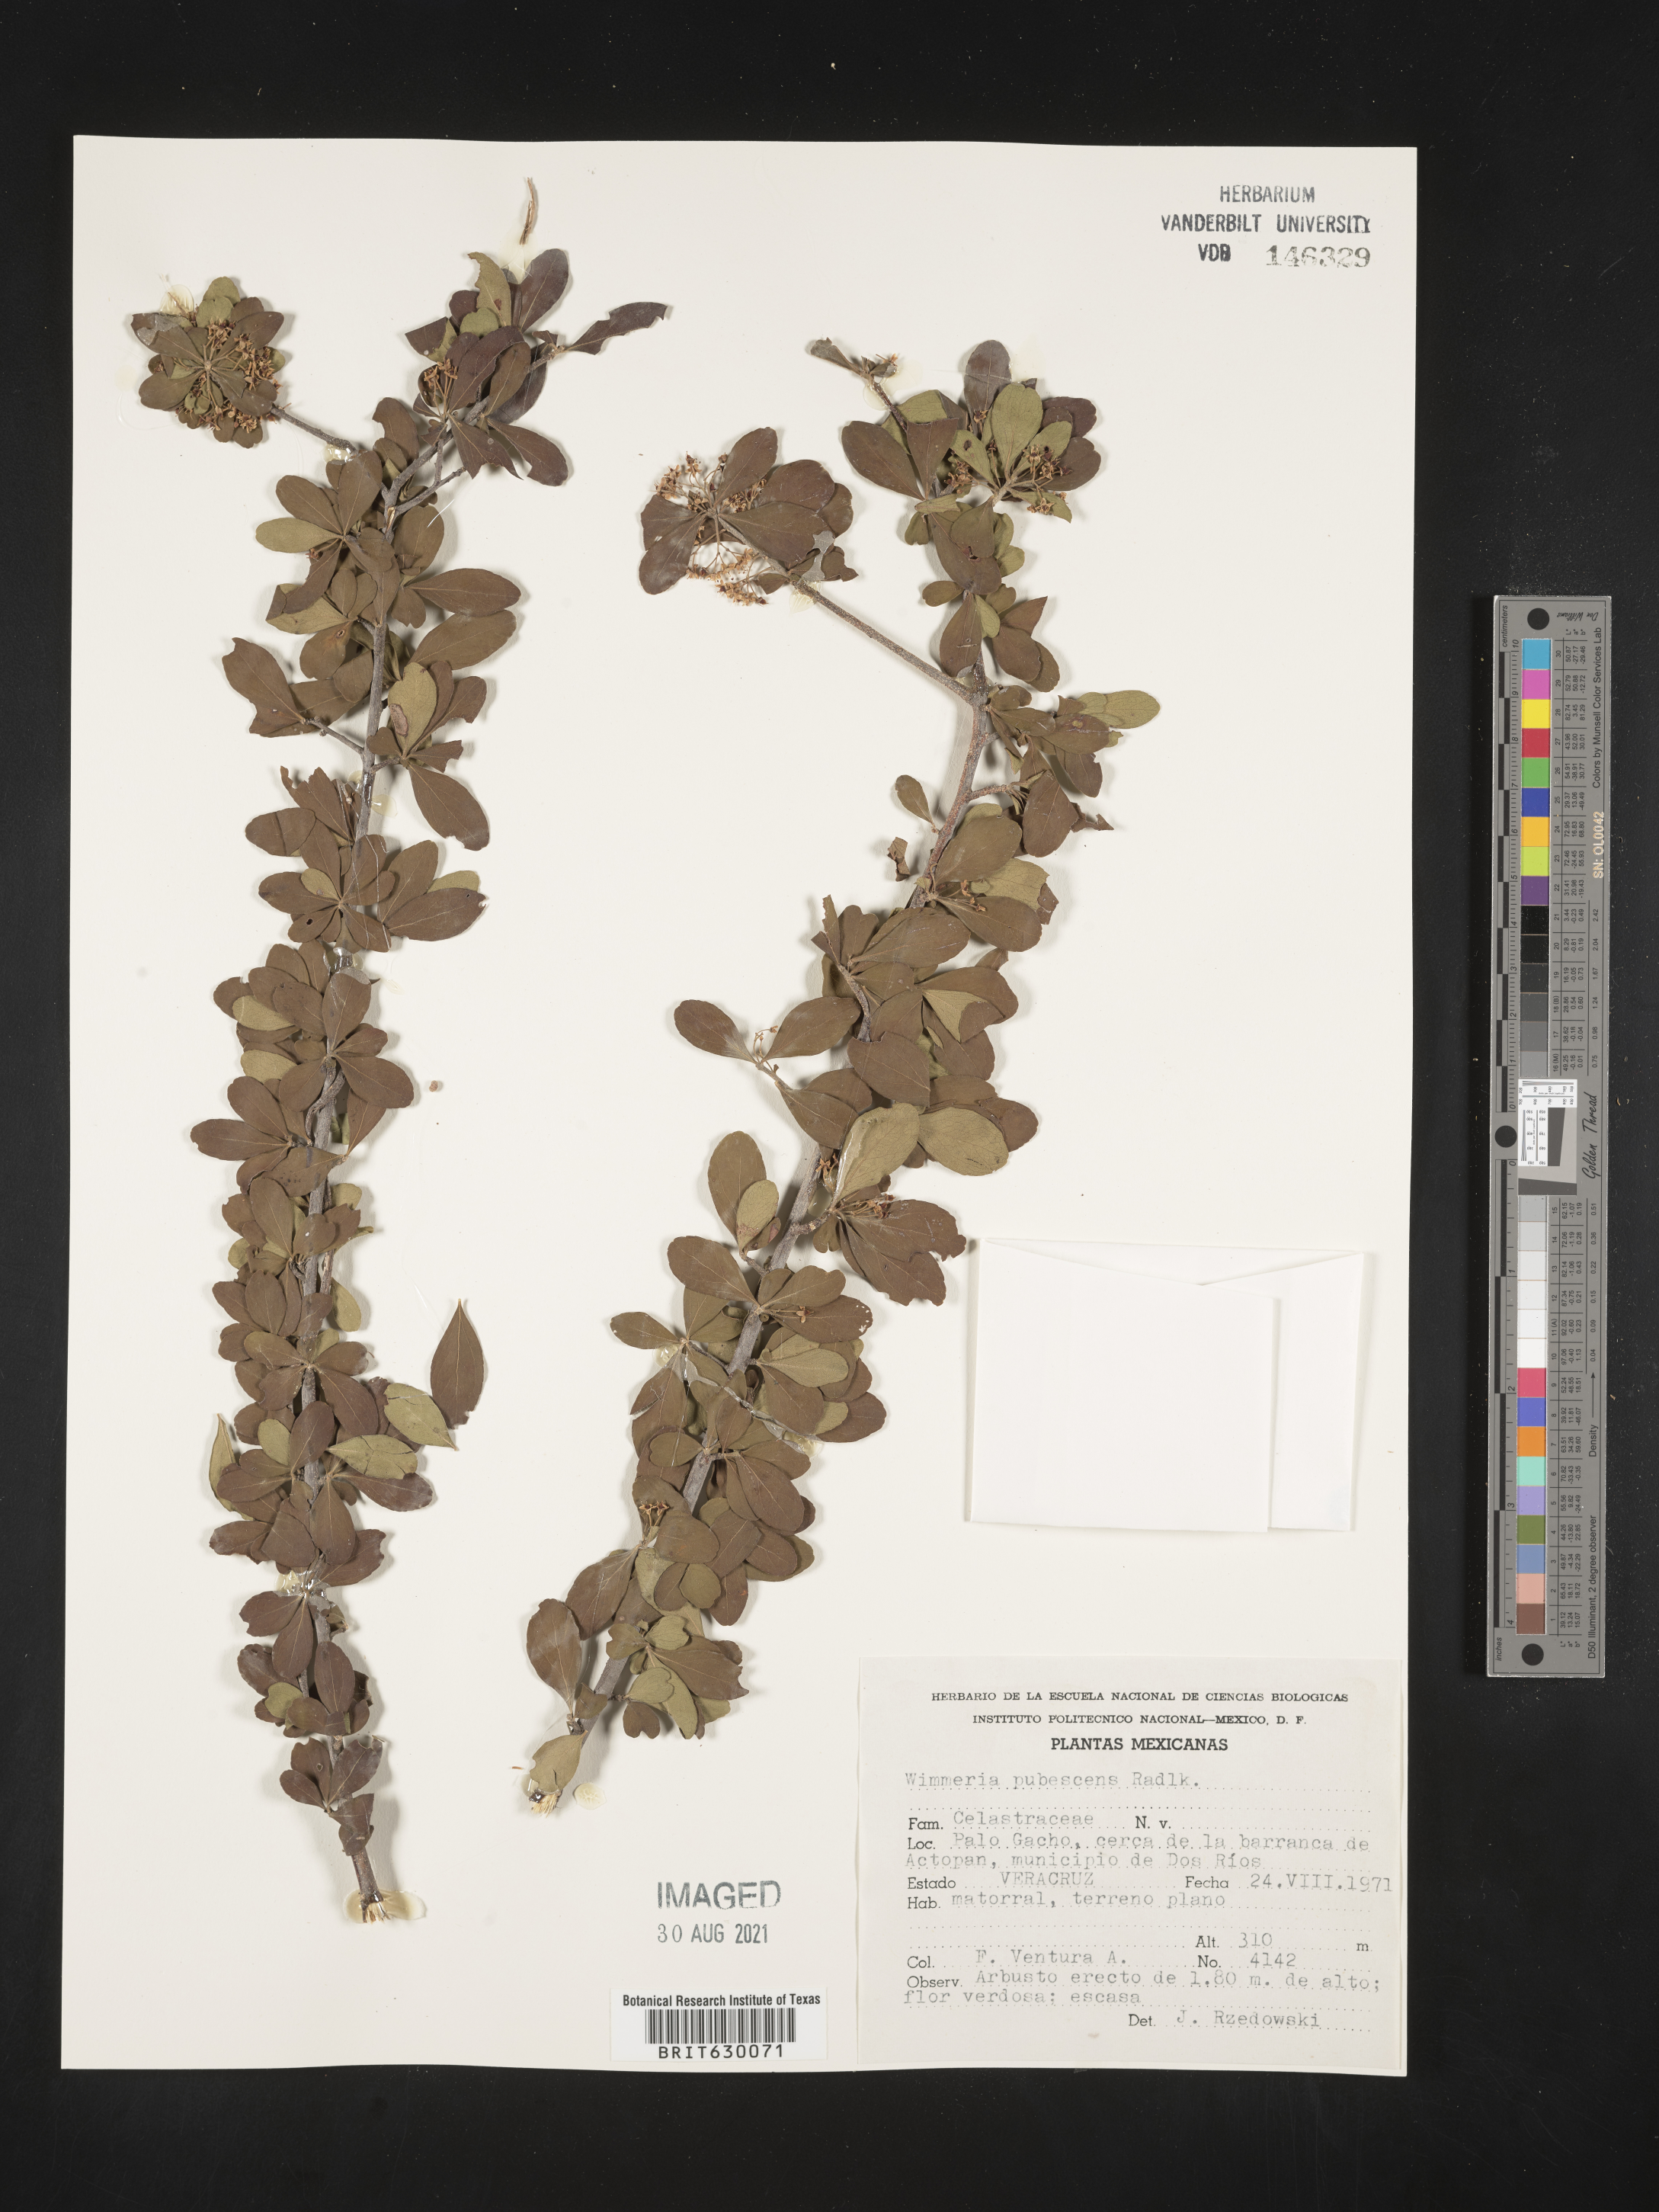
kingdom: Plantae
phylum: Tracheophyta
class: Magnoliopsida
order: Celastrales
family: Celastraceae
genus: Wimmeria
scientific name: Wimmeria
